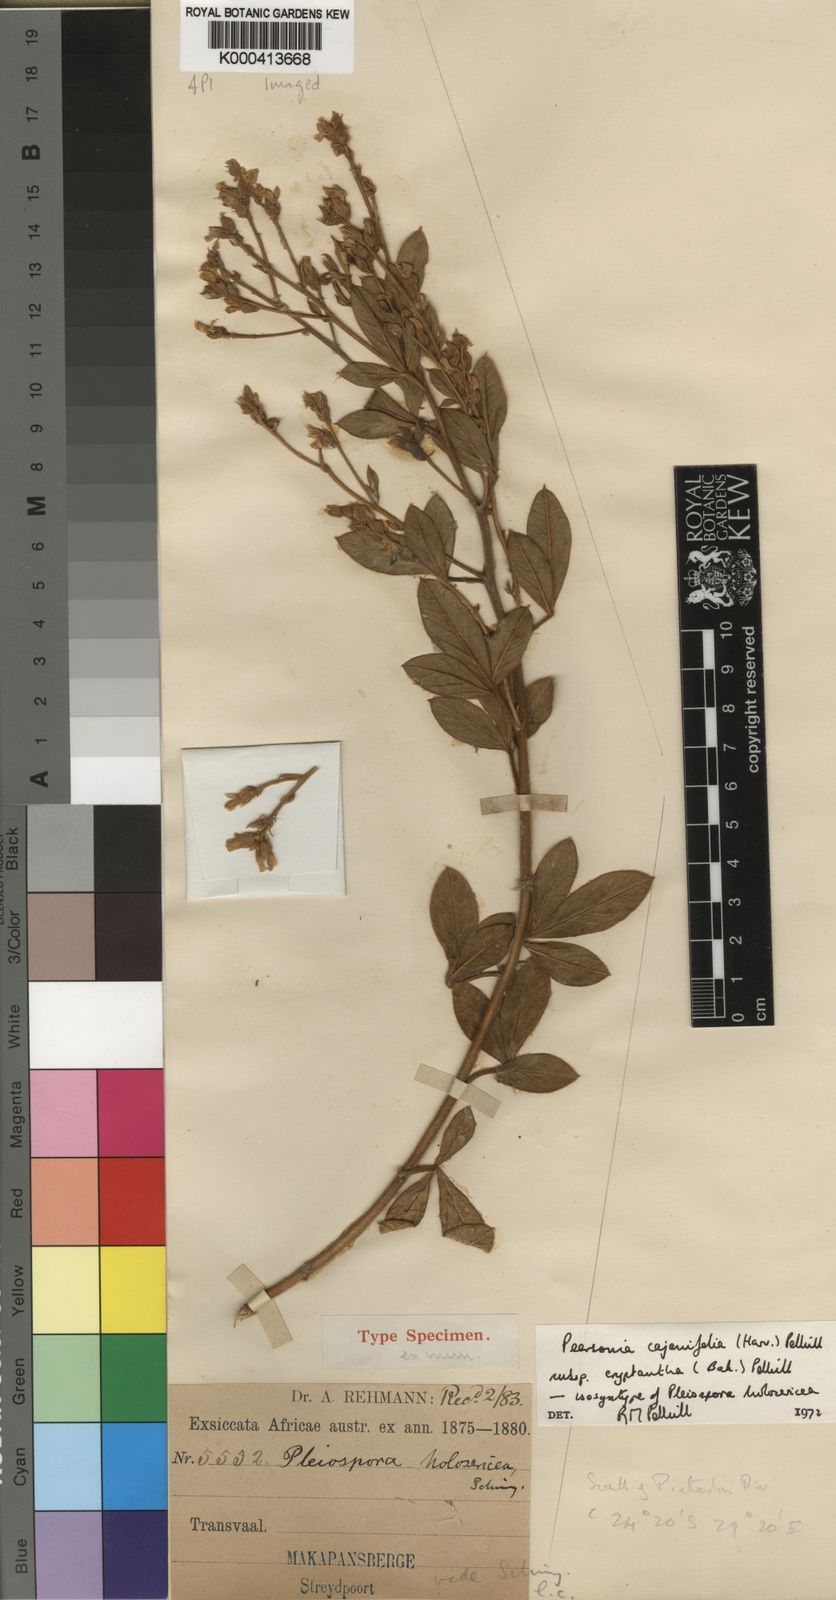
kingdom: Plantae
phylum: Tracheophyta
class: Magnoliopsida
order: Fabales
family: Fabaceae
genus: Pearsonia
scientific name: Pearsonia cajanifolia
